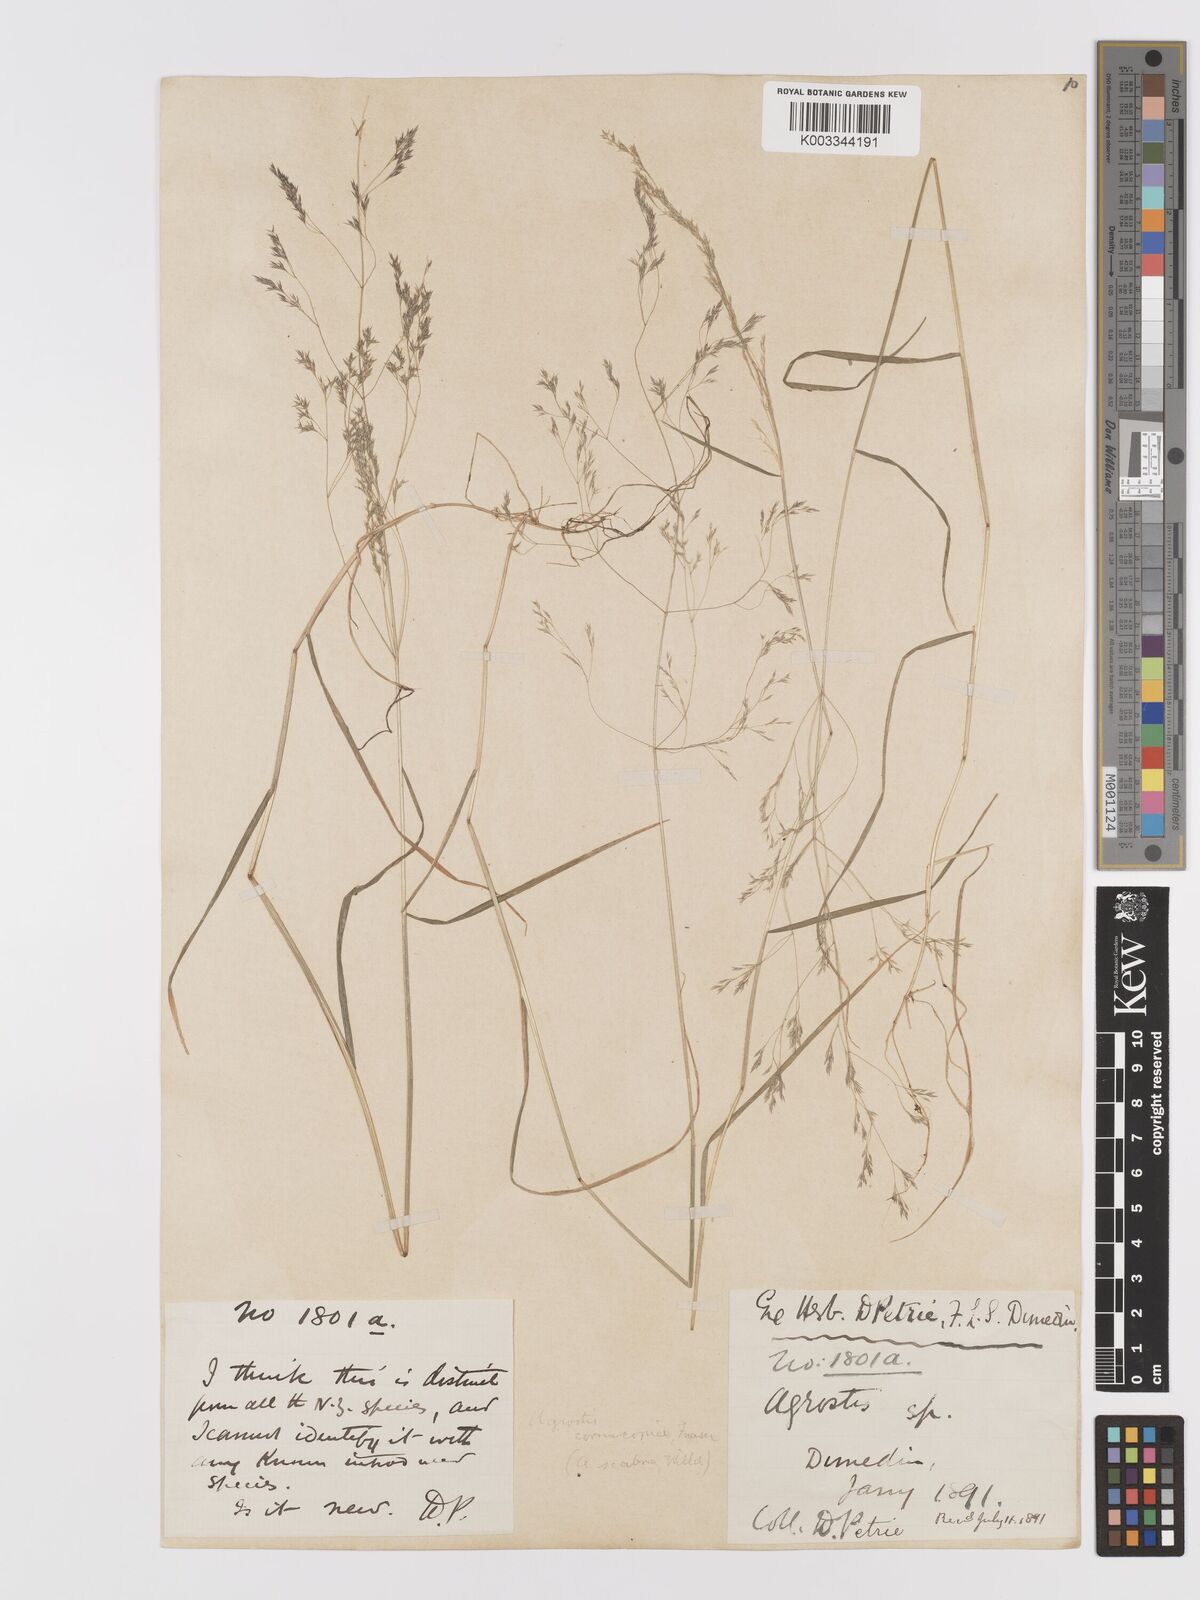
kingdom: Plantae
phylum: Tracheophyta
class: Liliopsida
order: Poales
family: Poaceae
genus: Agrostis
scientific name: Agrostis
